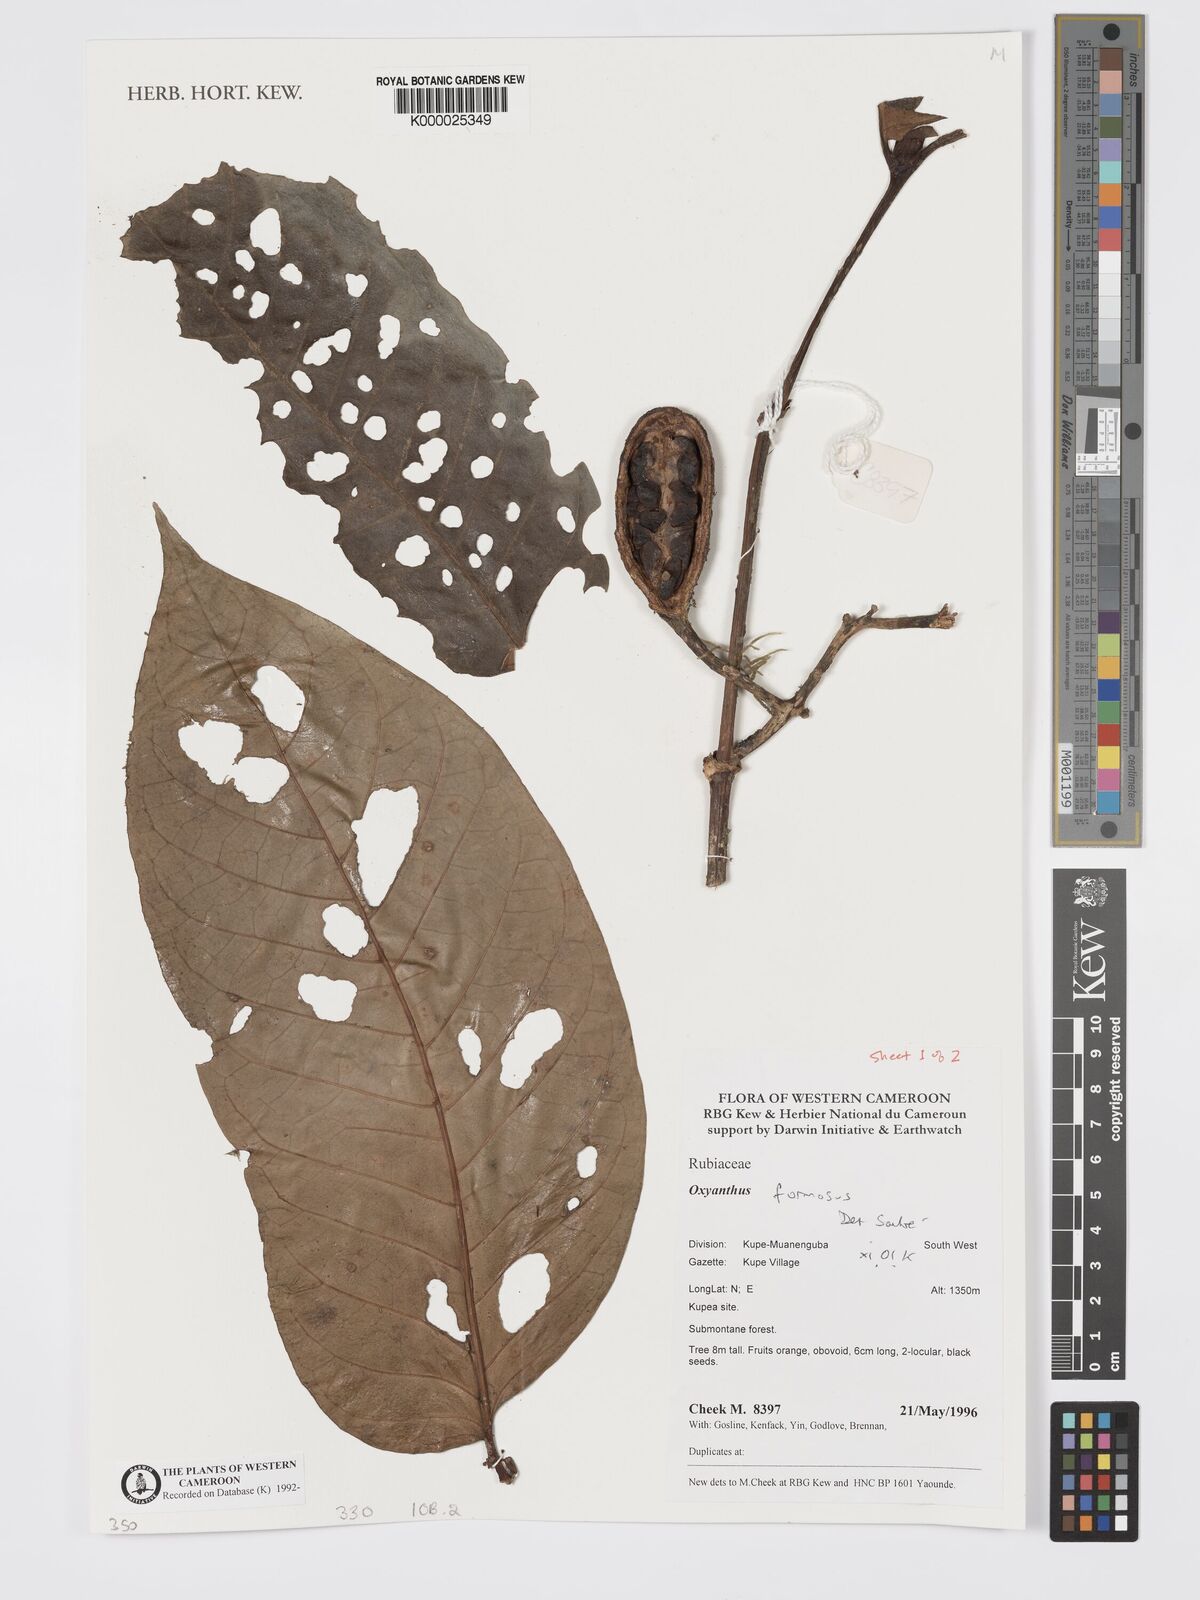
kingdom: Plantae
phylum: Tracheophyta
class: Magnoliopsida
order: Gentianales
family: Rubiaceae
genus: Oxyanthus
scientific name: Oxyanthus
